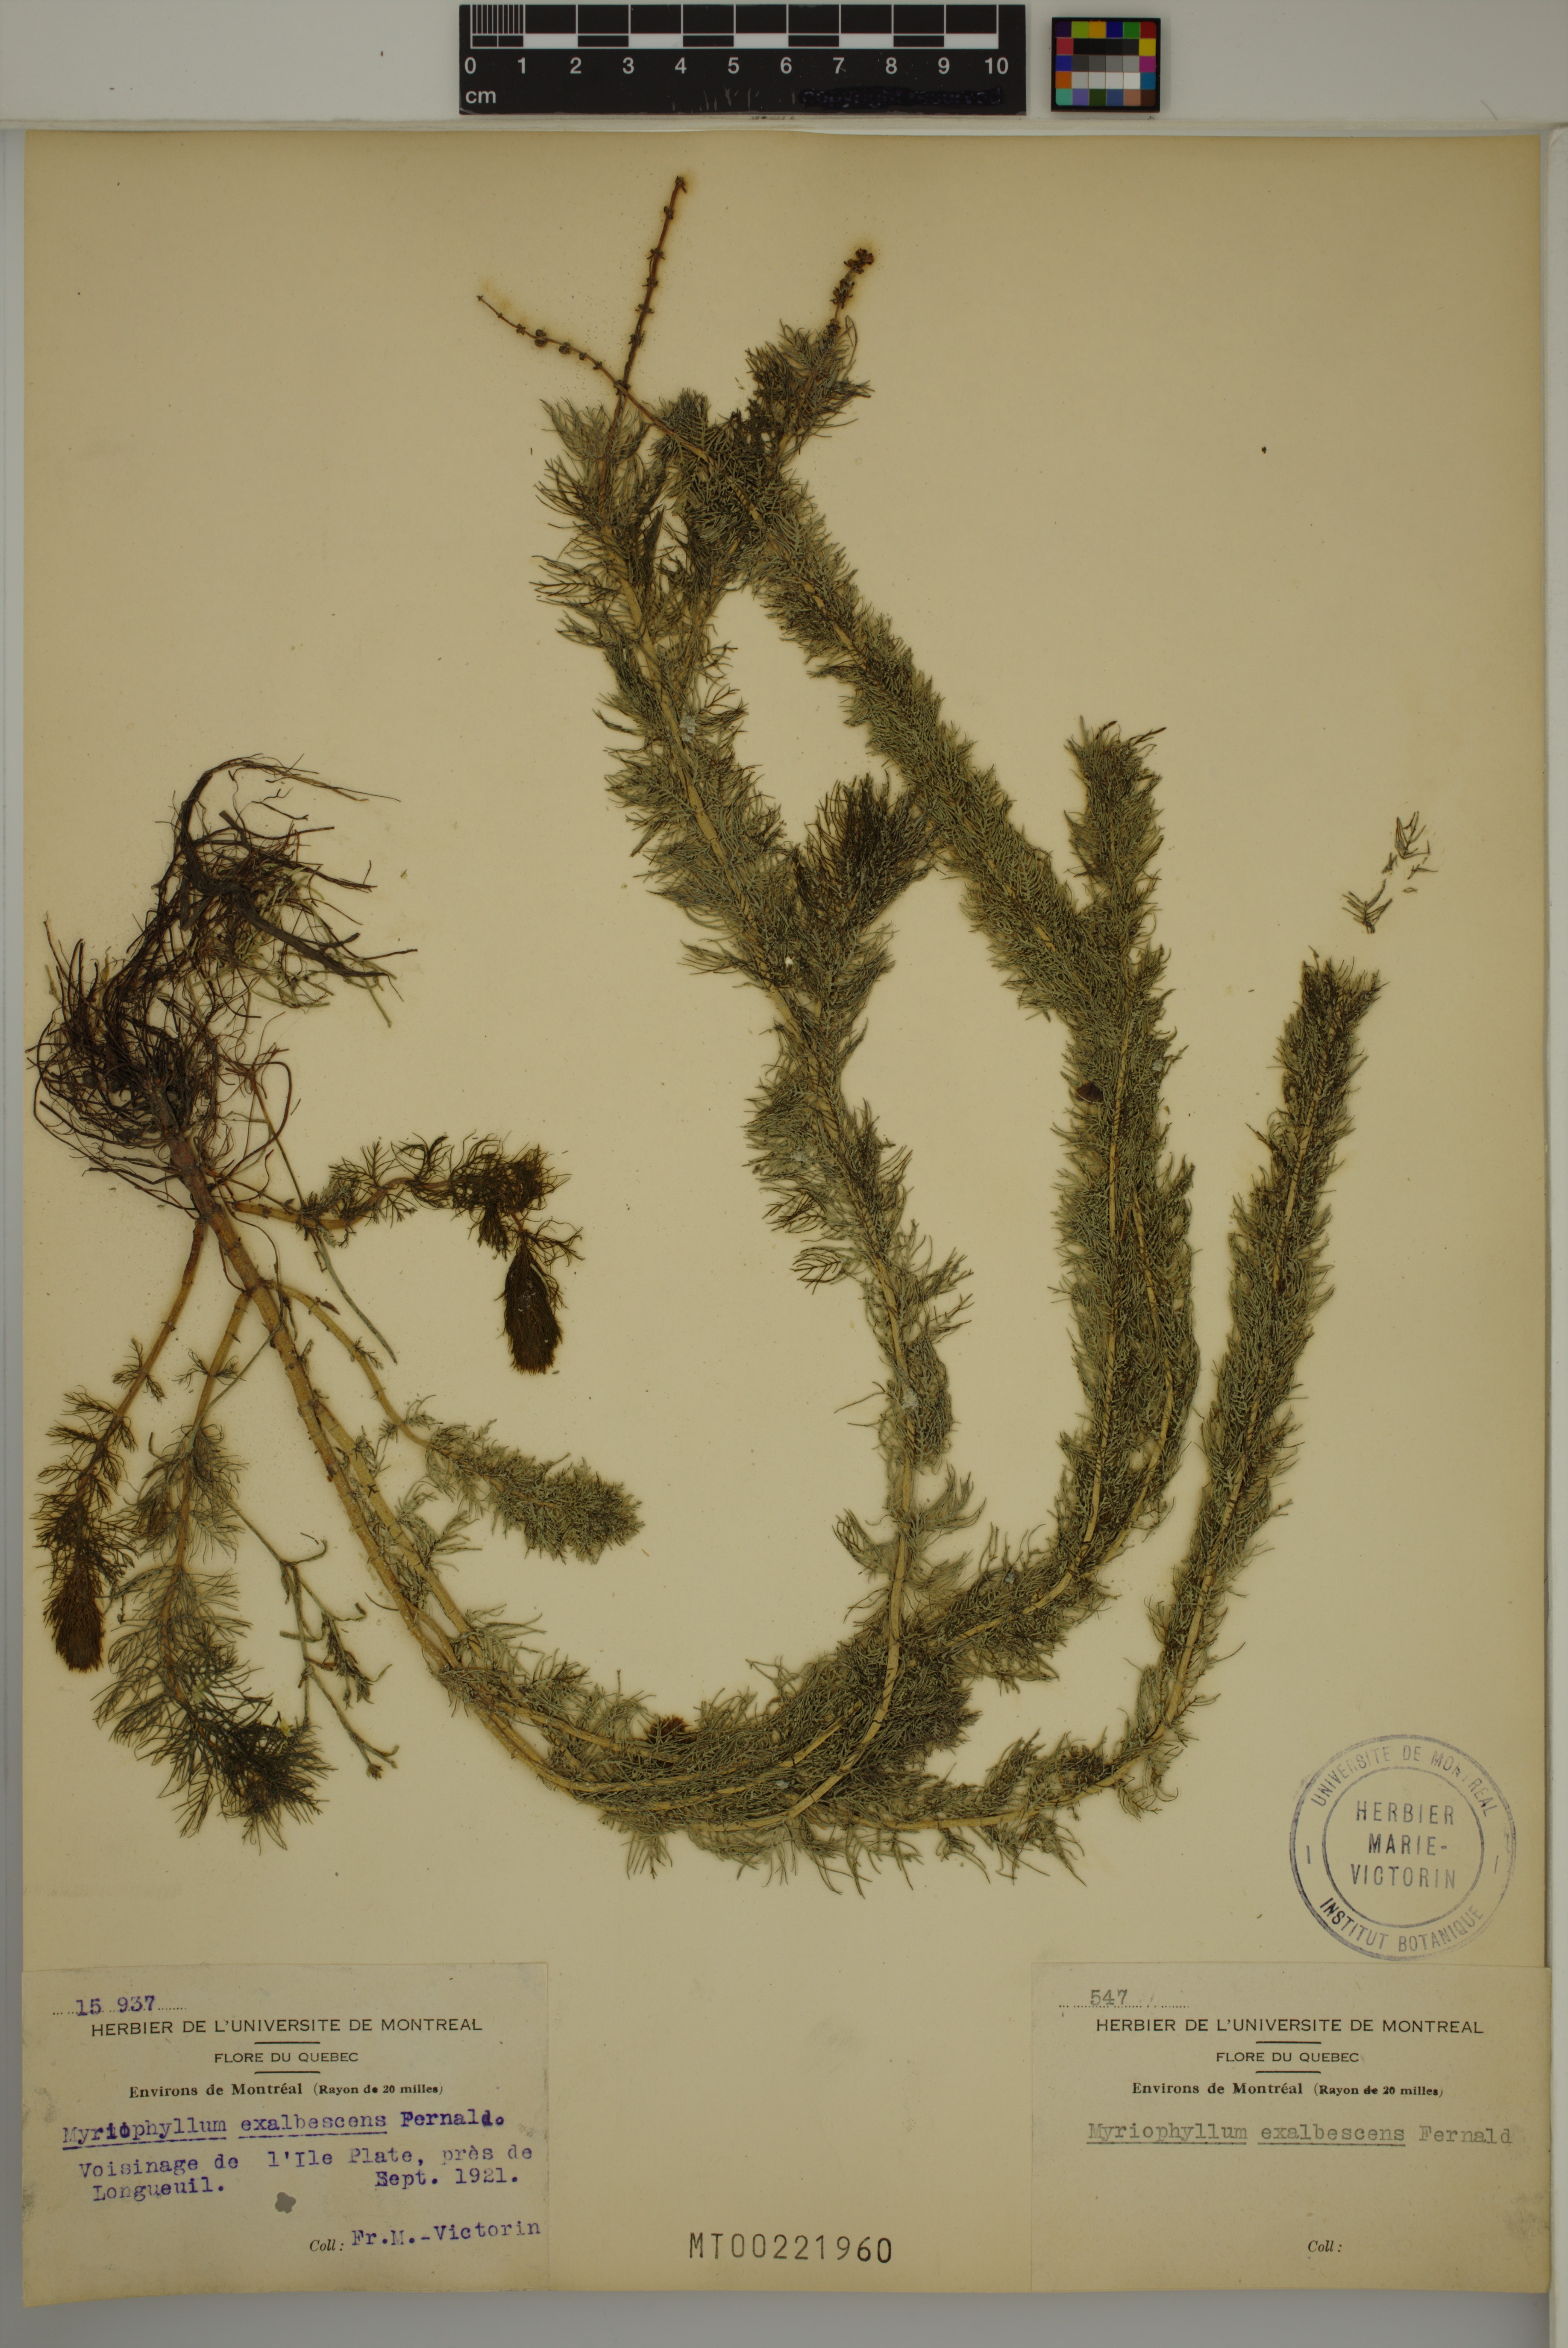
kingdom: Plantae
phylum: Tracheophyta
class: Magnoliopsida
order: Saxifragales
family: Haloragaceae
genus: Myriophyllum
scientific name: Myriophyllum sibiricum
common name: Siberian water-milfoil
